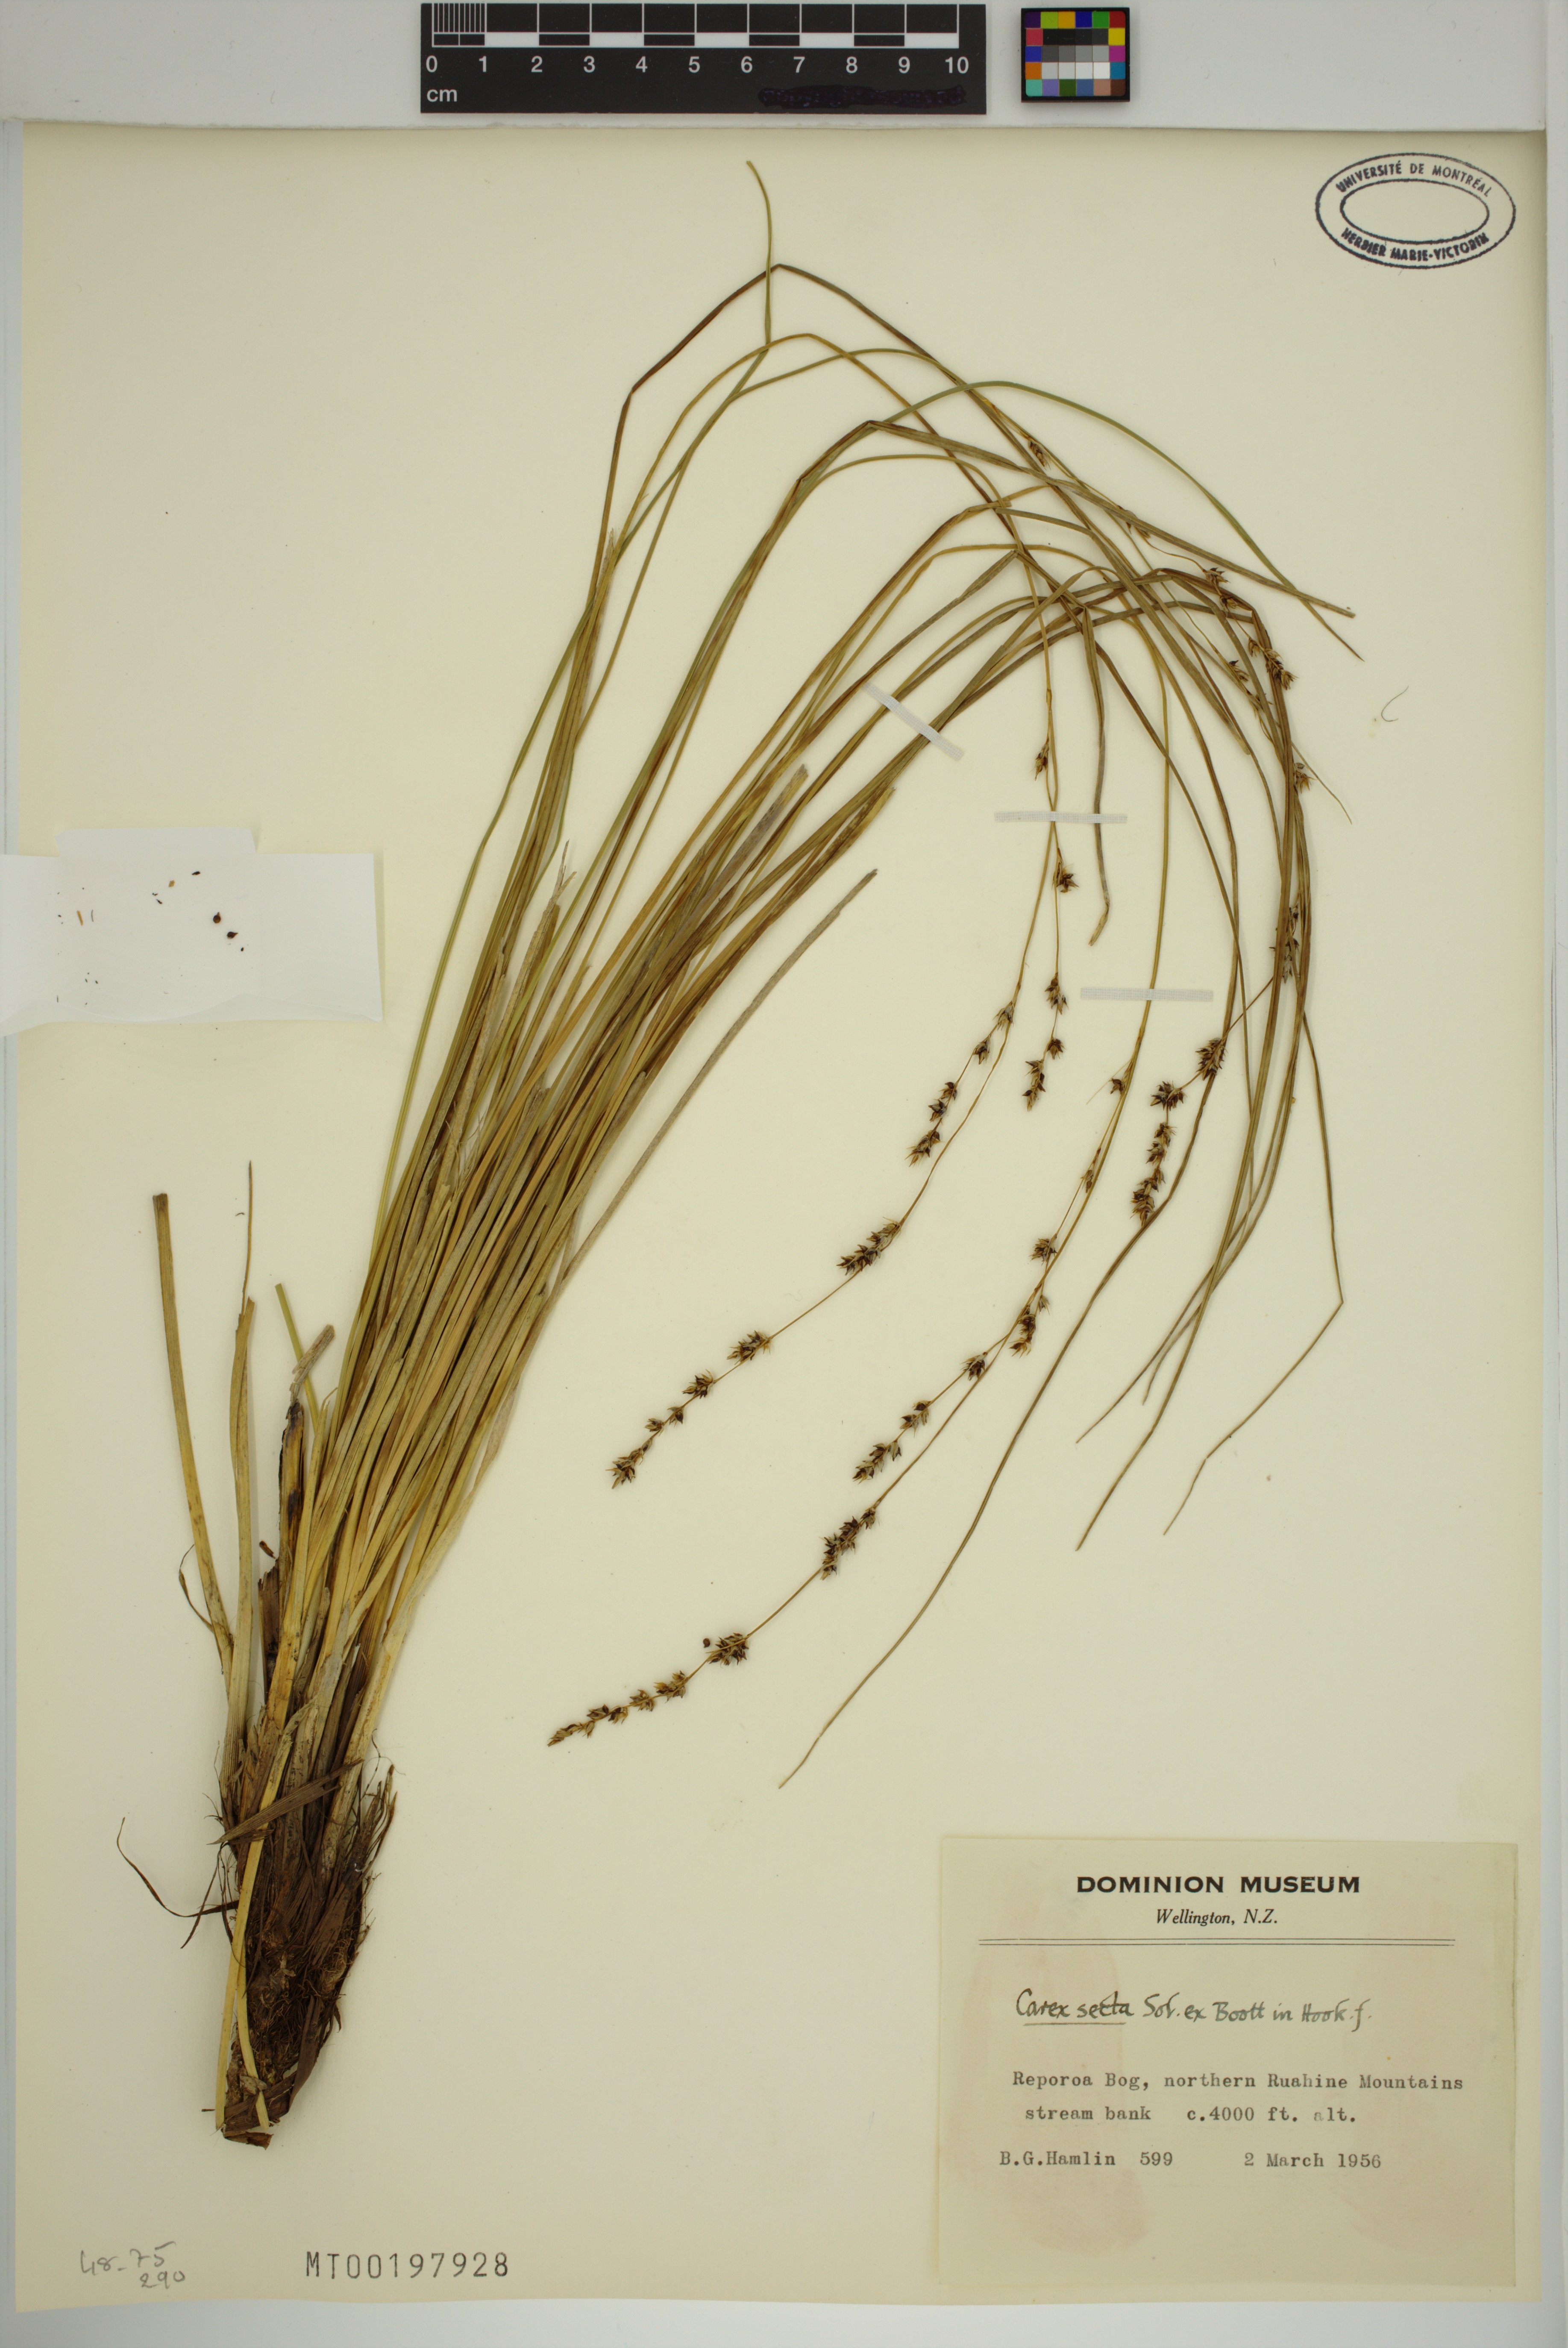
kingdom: Plantae
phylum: Tracheophyta
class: Liliopsida
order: Poales
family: Cyperaceae
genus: Carex
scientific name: Carex secta
